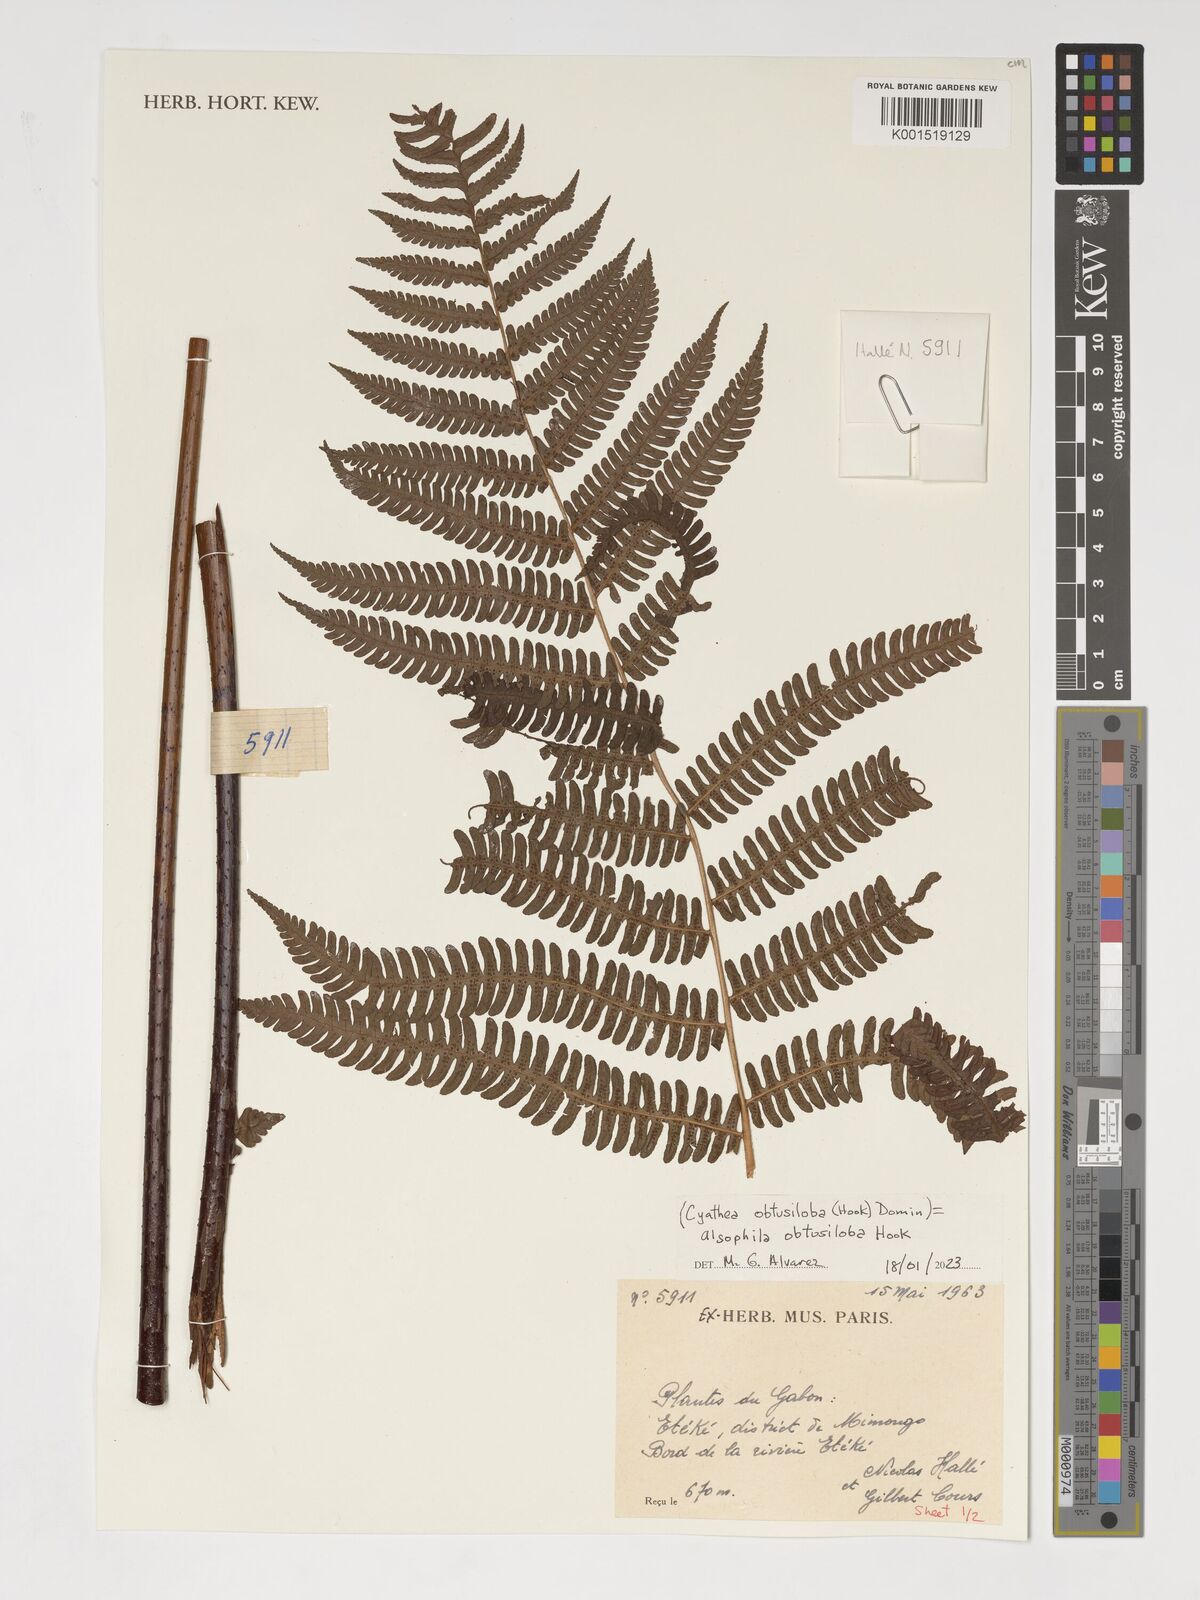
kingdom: Plantae
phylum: Tracheophyta
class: Polypodiopsida
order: Cyatheales
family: Cyatheaceae
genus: Alsophila
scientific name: Alsophila obtusiloba
